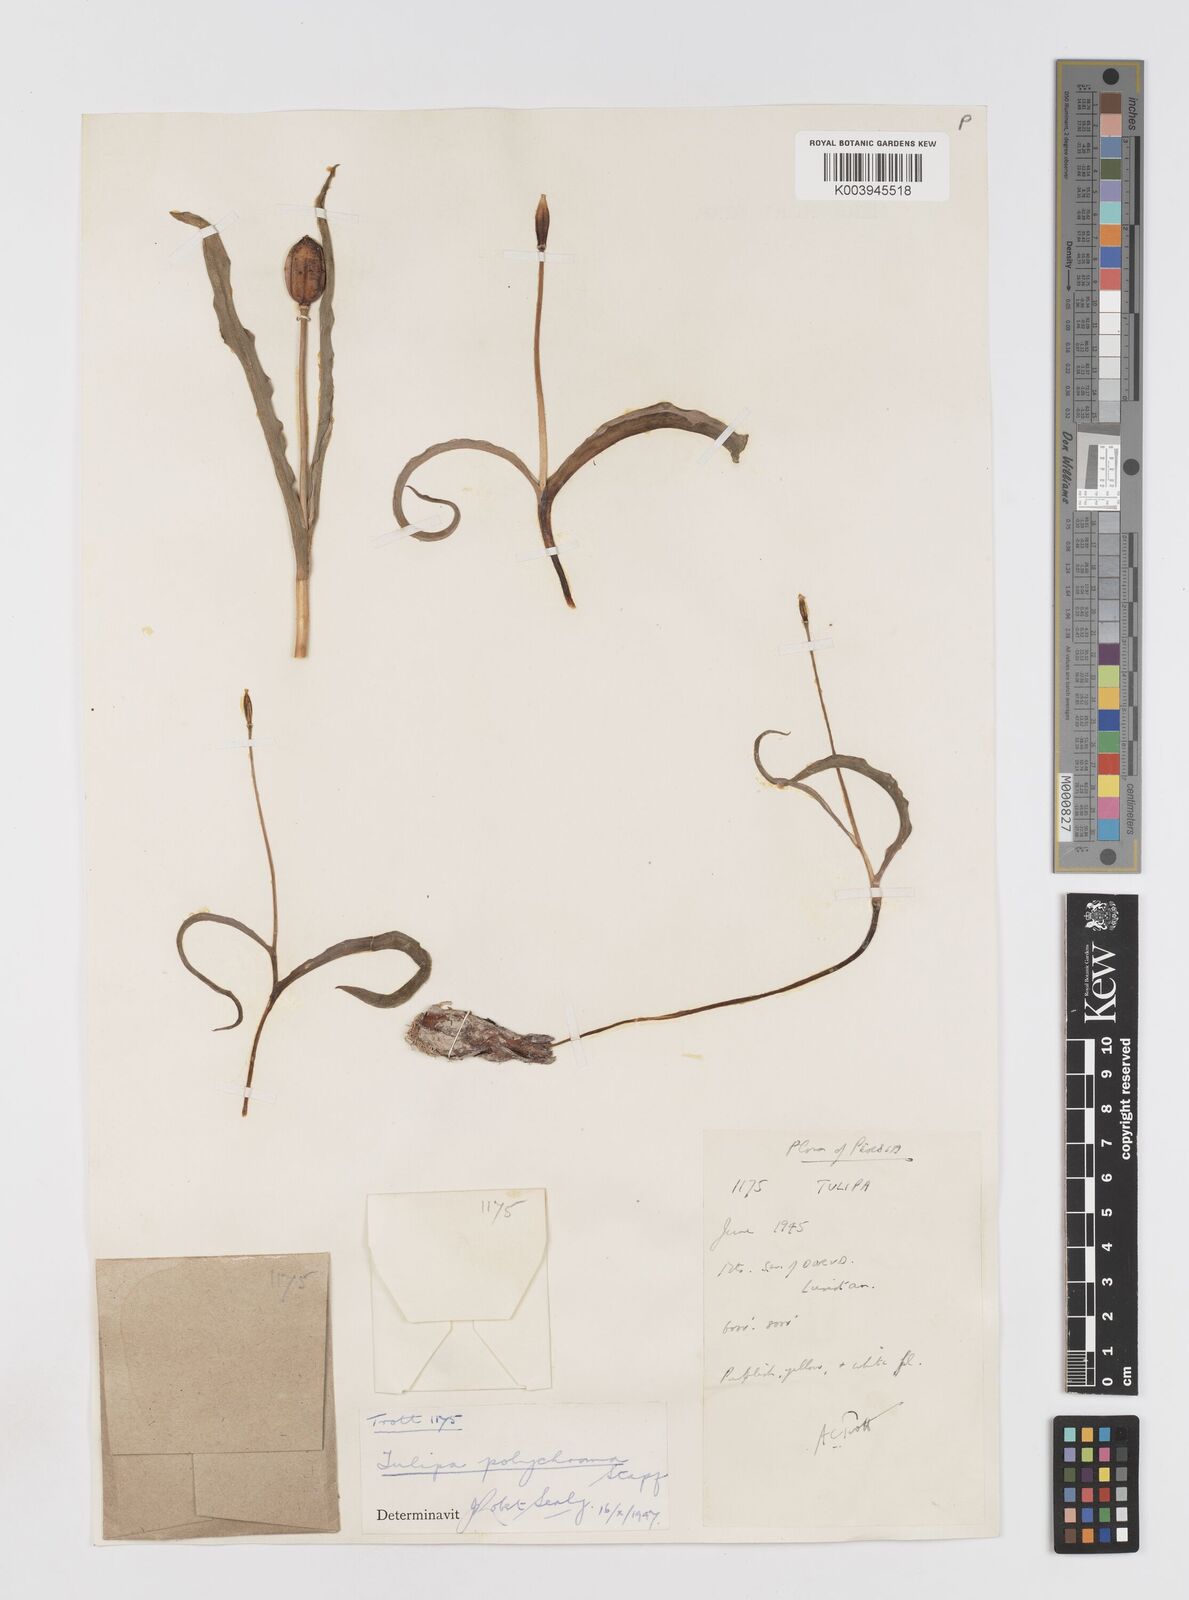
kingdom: Plantae
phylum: Tracheophyta
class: Liliopsida
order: Liliales
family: Liliaceae
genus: Tulipa
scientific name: Tulipa biflora
